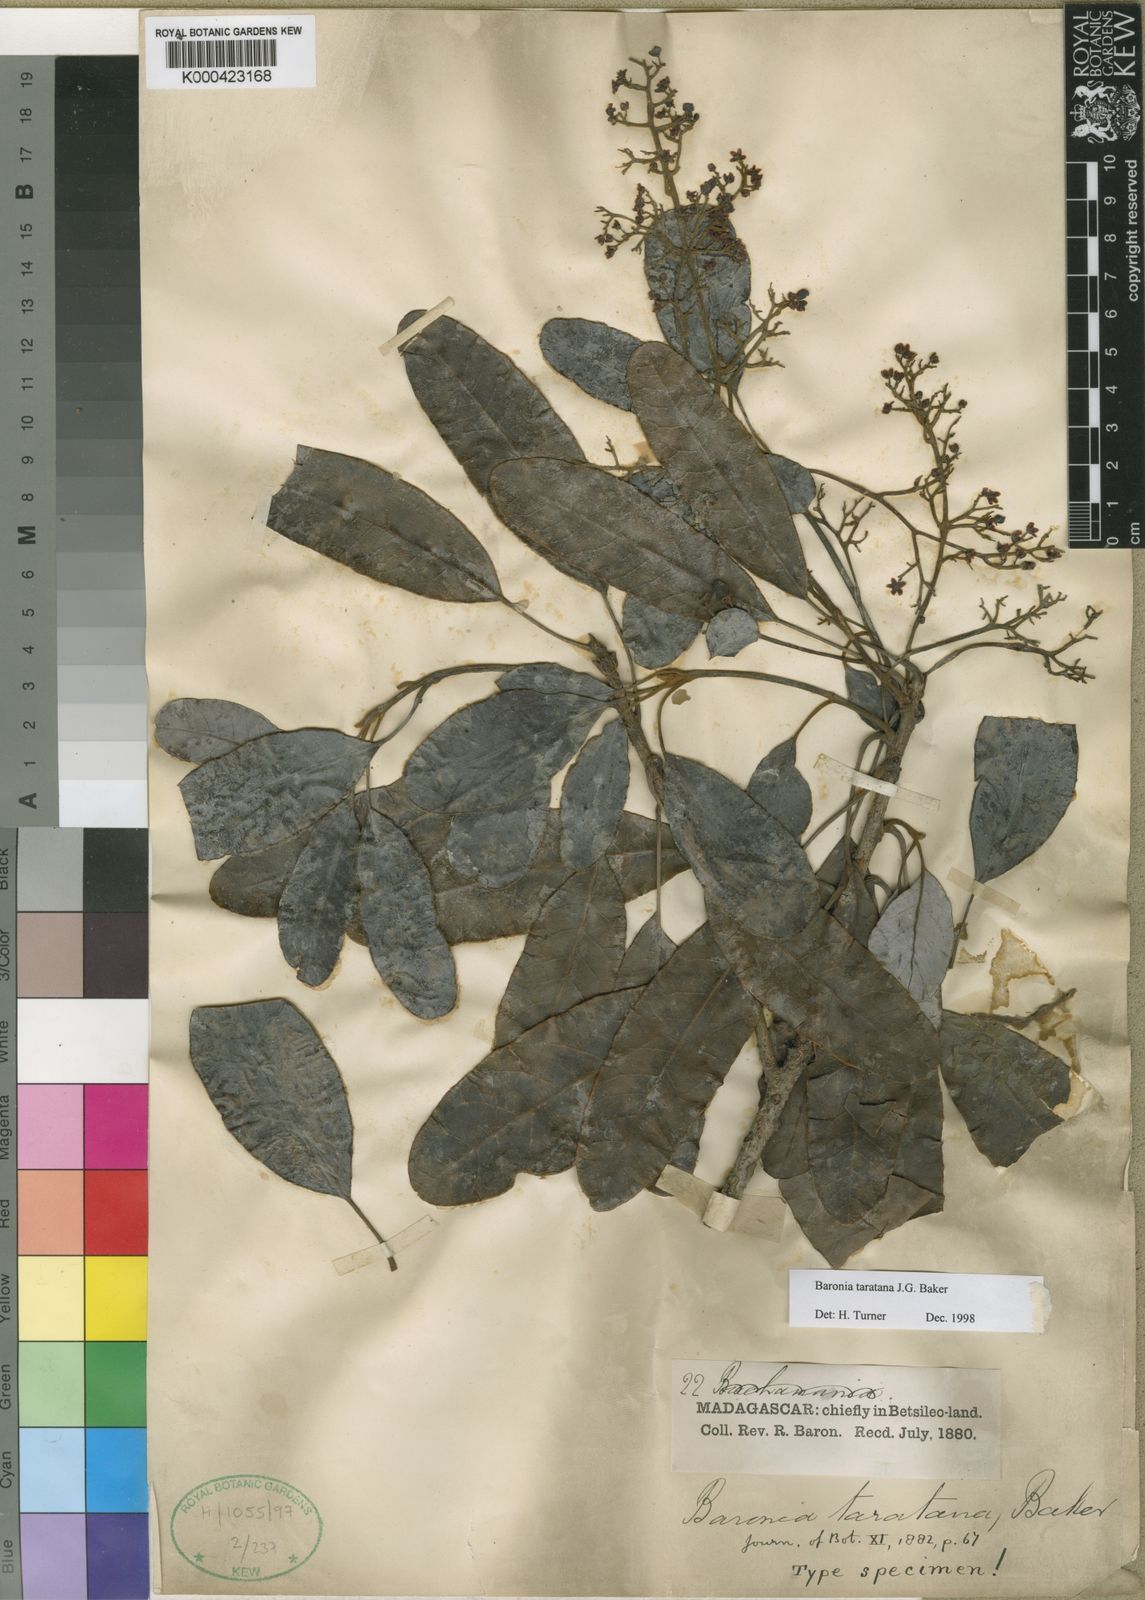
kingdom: Plantae
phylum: Tracheophyta
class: Magnoliopsida
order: Sapindales
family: Anacardiaceae
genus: Baronia
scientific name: Baronia taratana
